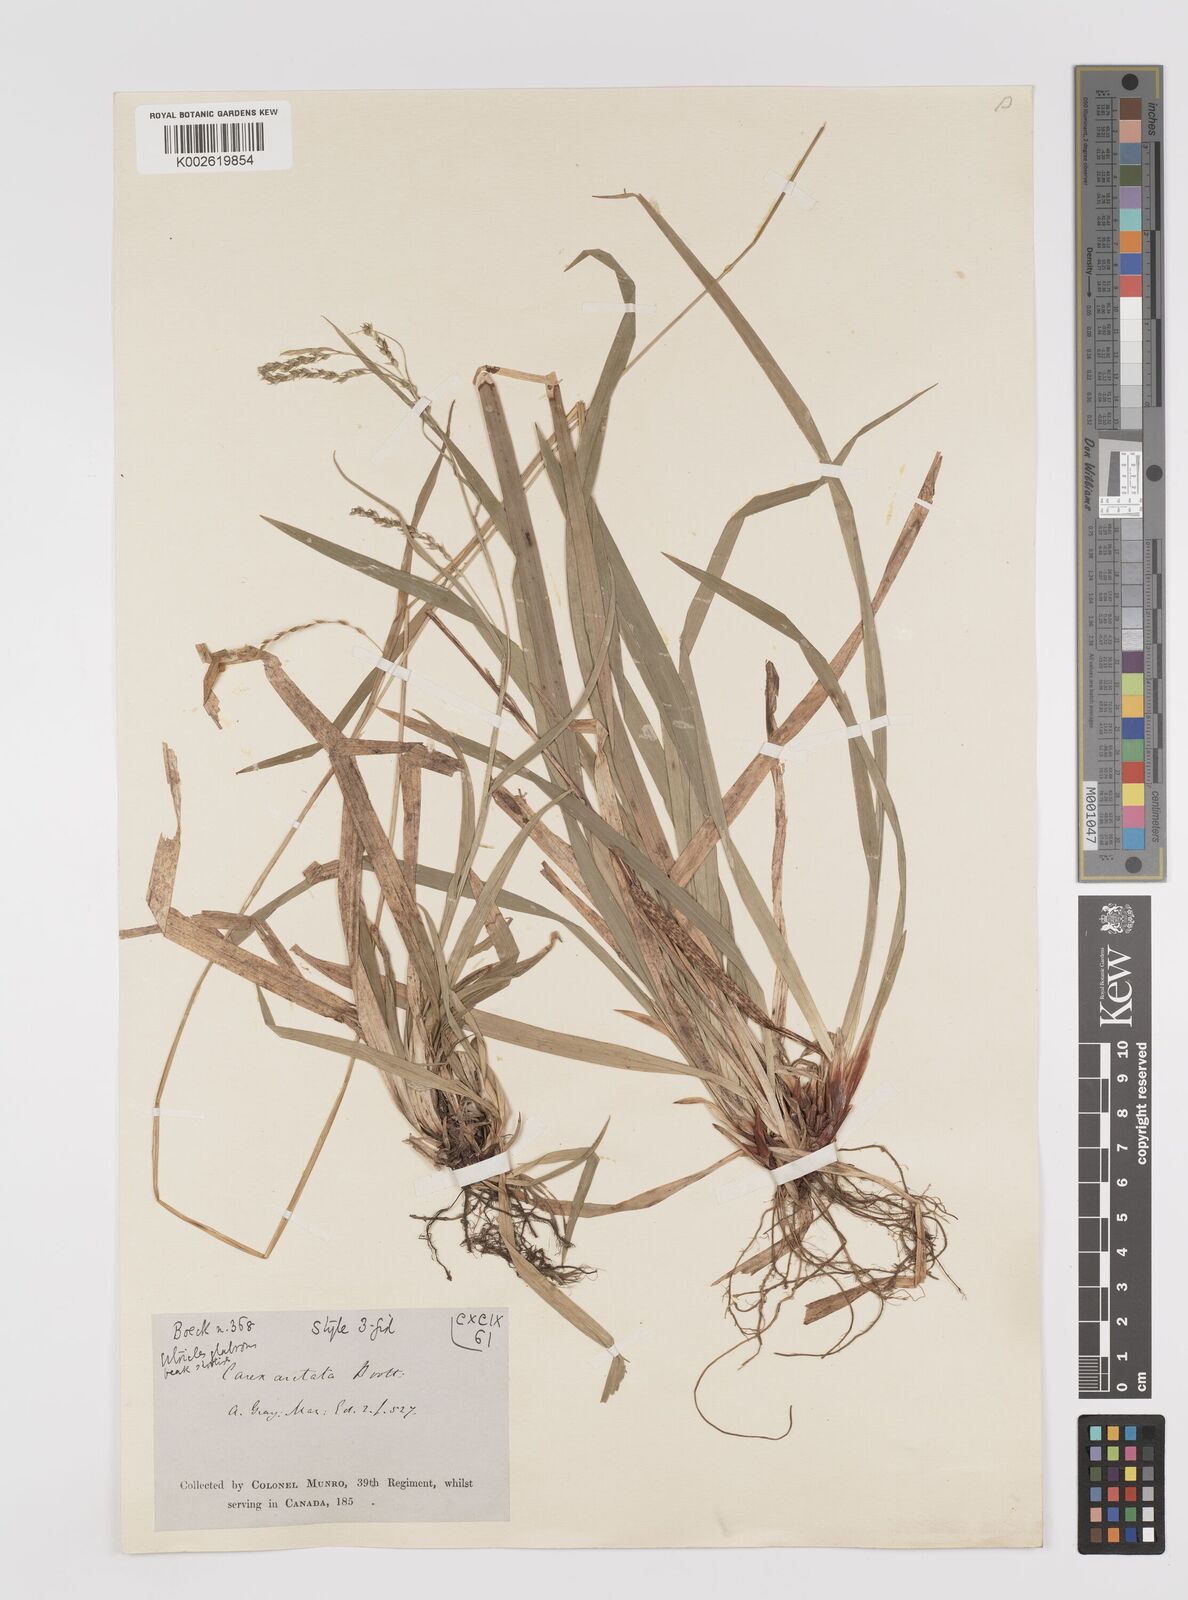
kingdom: Plantae
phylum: Tracheophyta
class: Liliopsida
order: Poales
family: Cyperaceae
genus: Carex
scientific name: Carex arctata
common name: Black sedge
